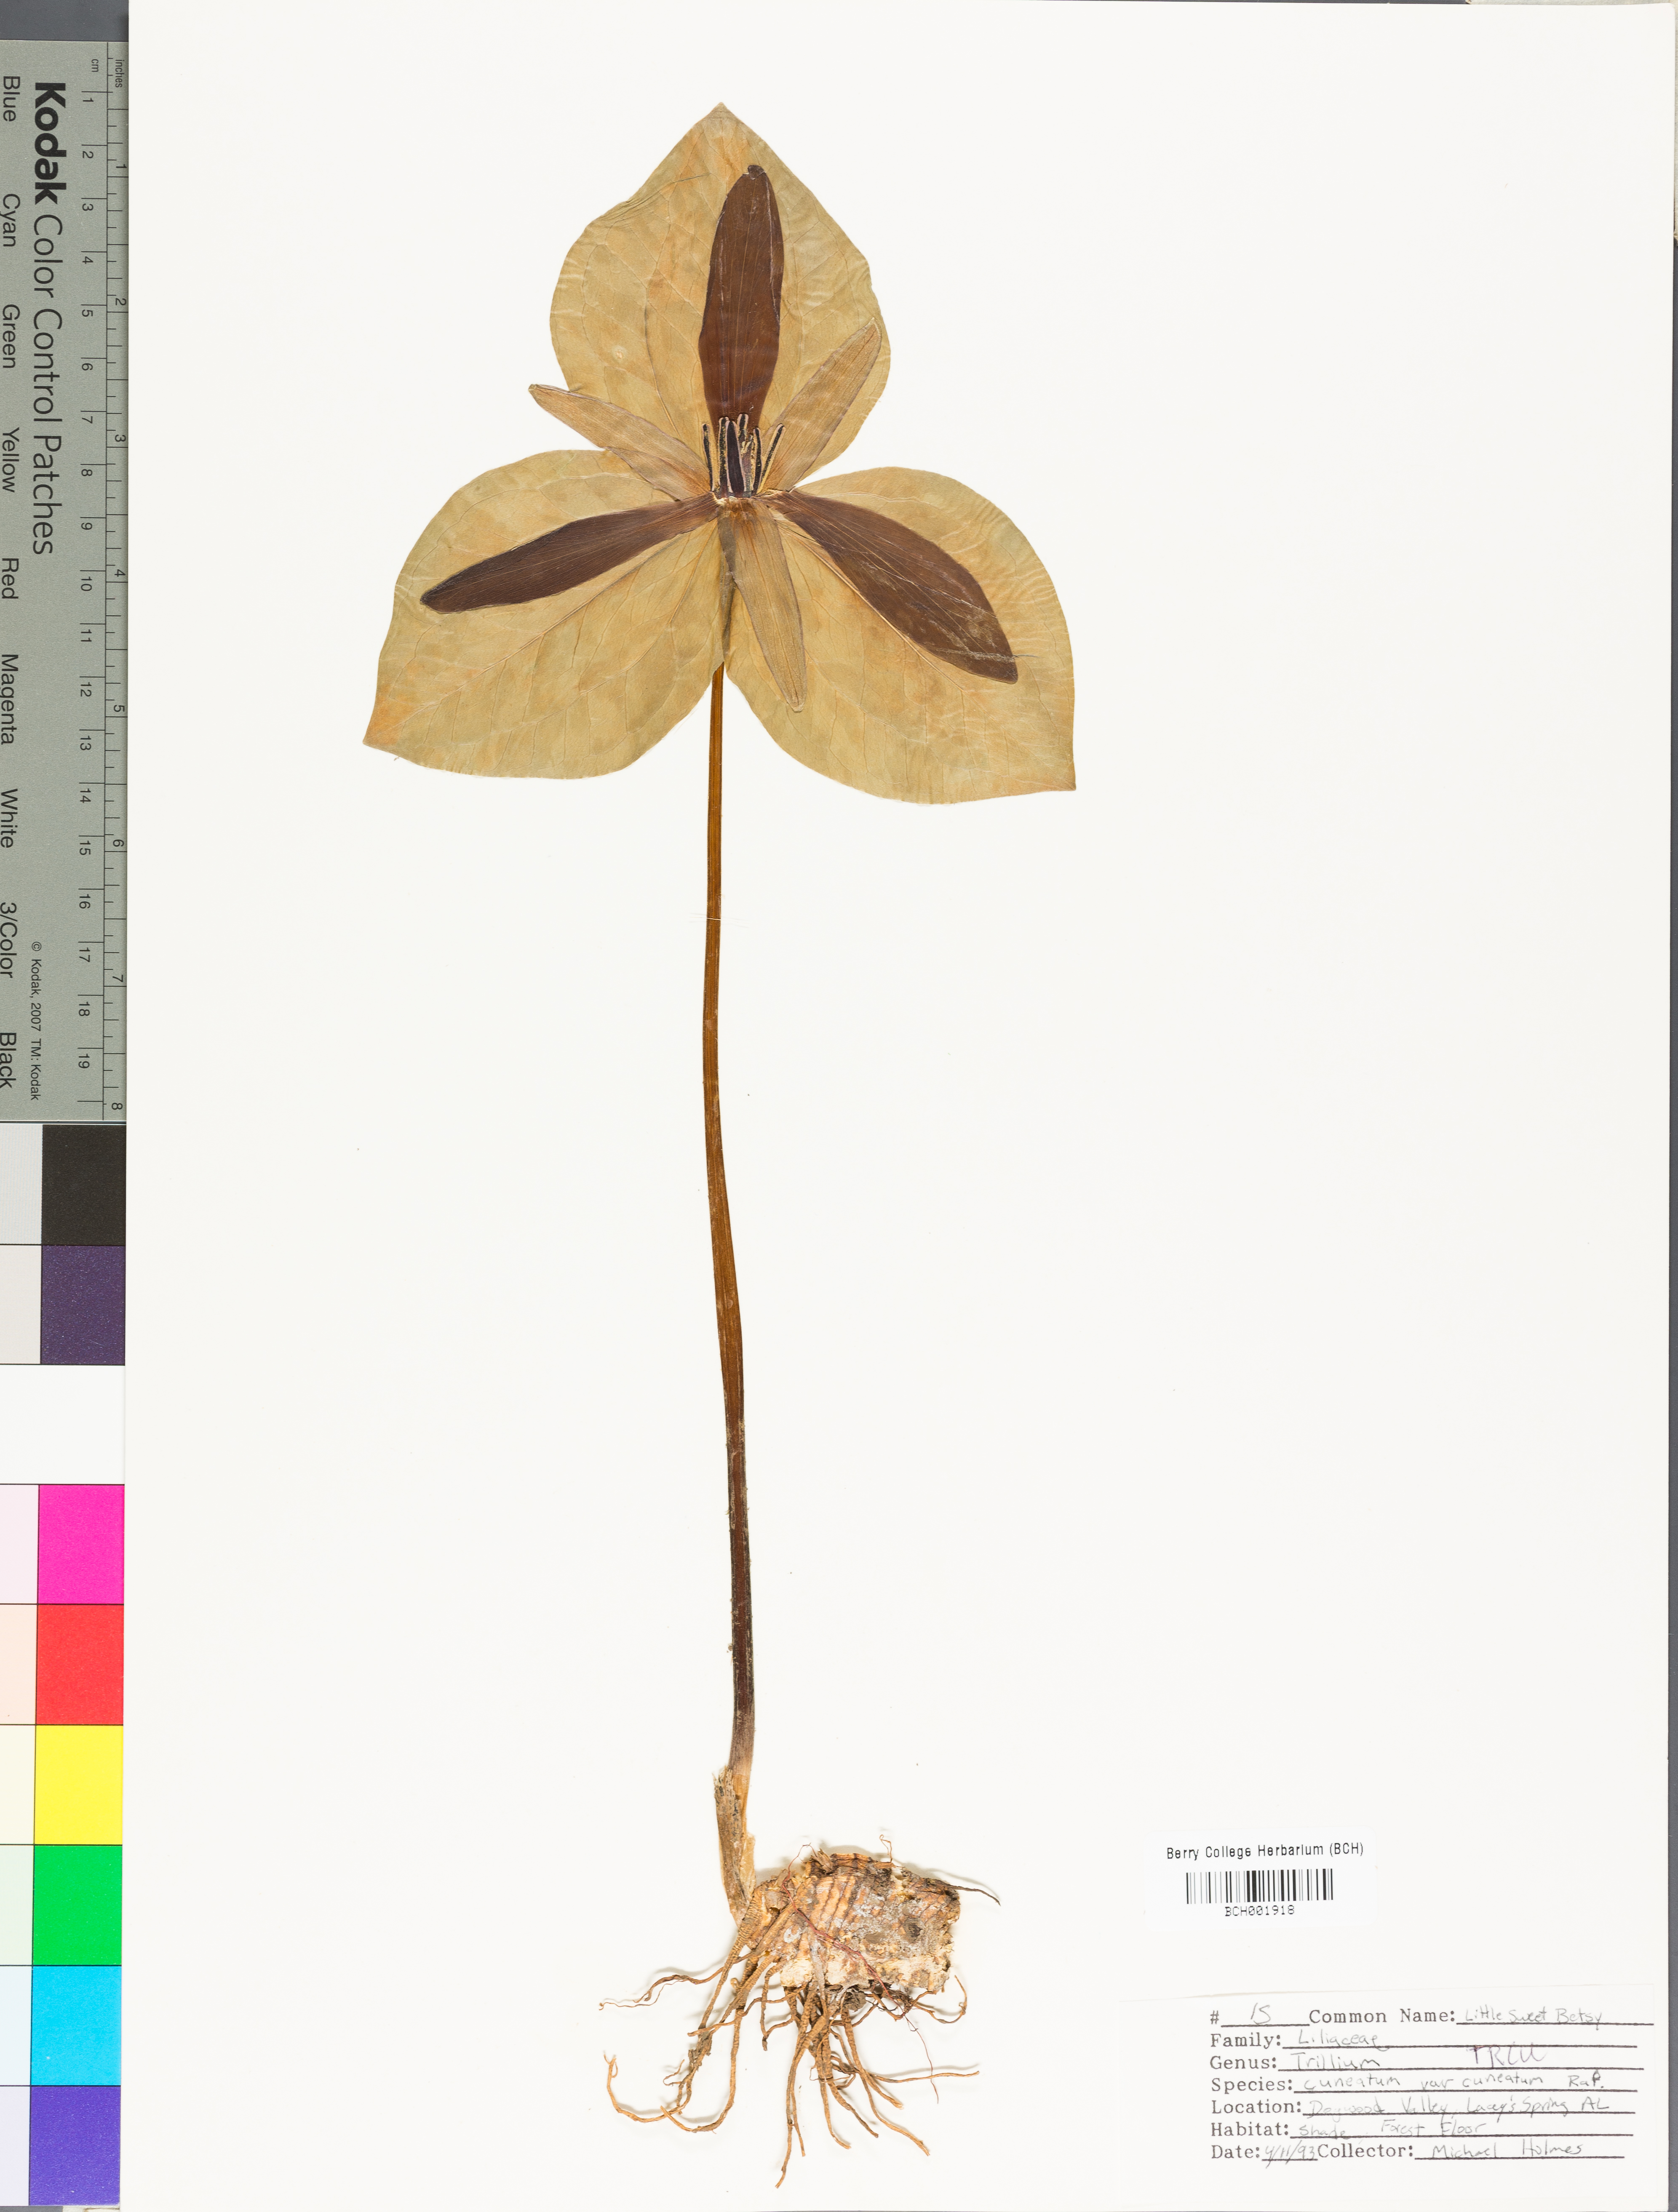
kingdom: Plantae
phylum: Tracheophyta
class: Liliopsida
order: Liliales
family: Melanthiaceae
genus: Trillium
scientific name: Trillium cuneatum
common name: Cuneate trillium
